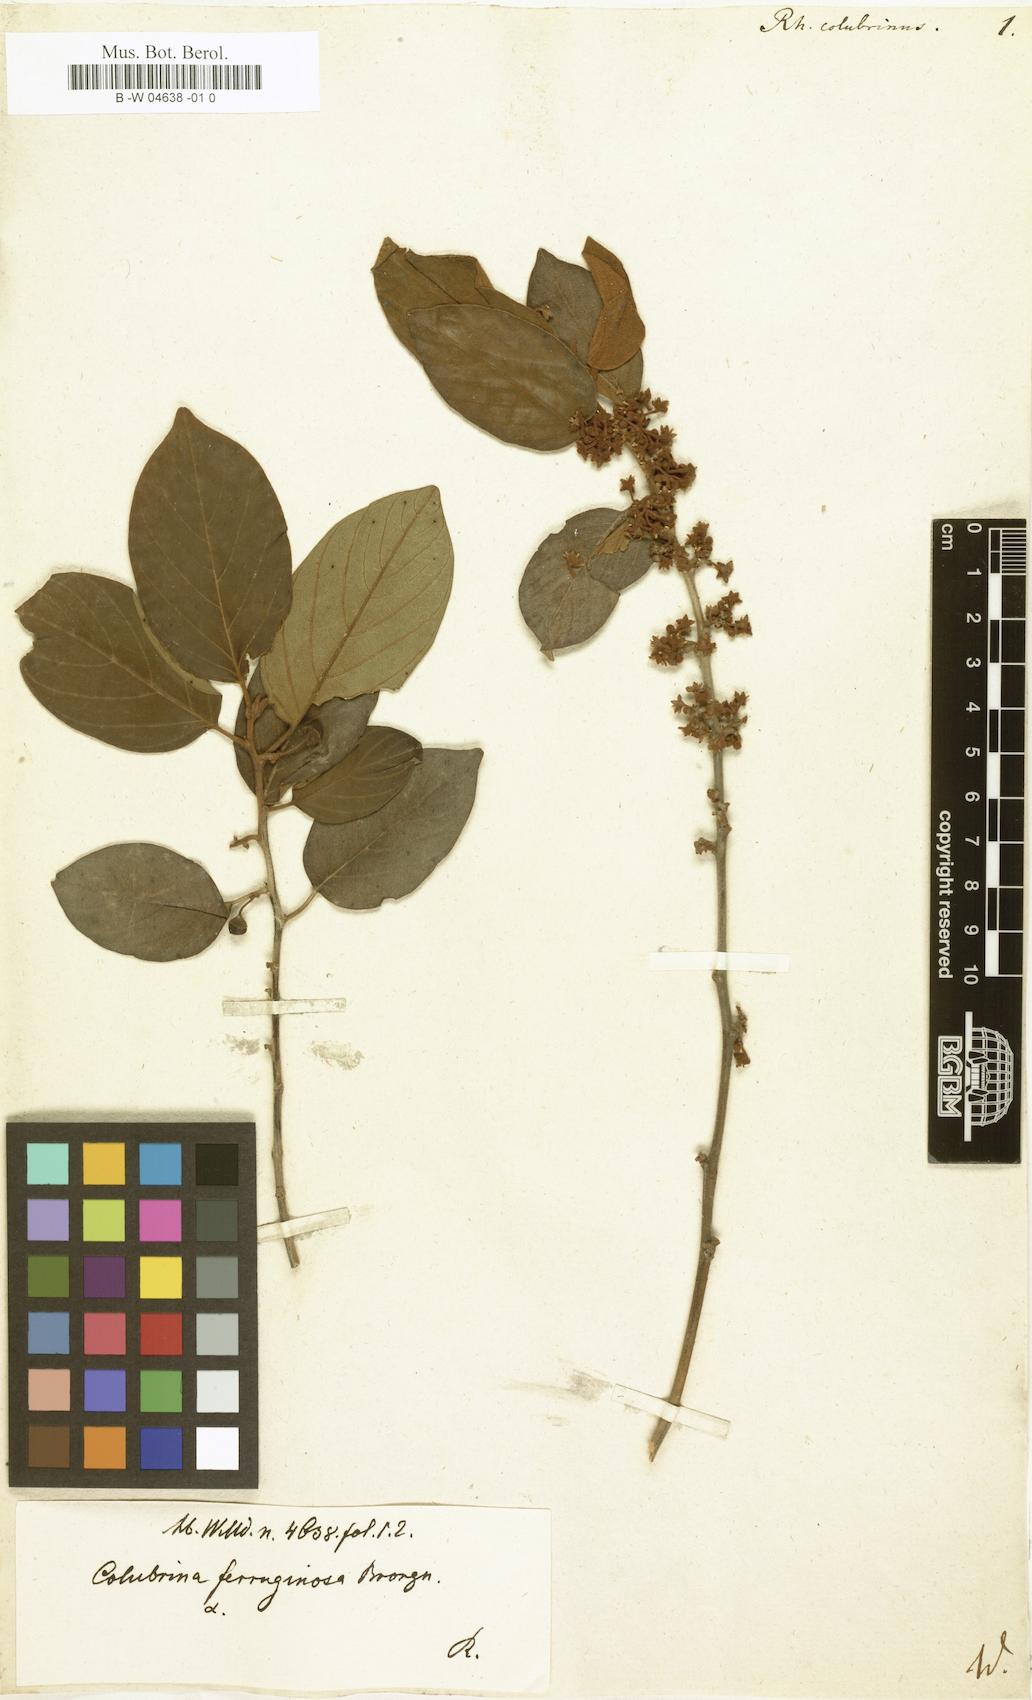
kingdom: Plantae
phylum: Tracheophyta
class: Magnoliopsida
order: Rosales
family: Rhamnaceae
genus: Colubrina
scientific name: Colubrina arborescens
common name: Wild coffee
